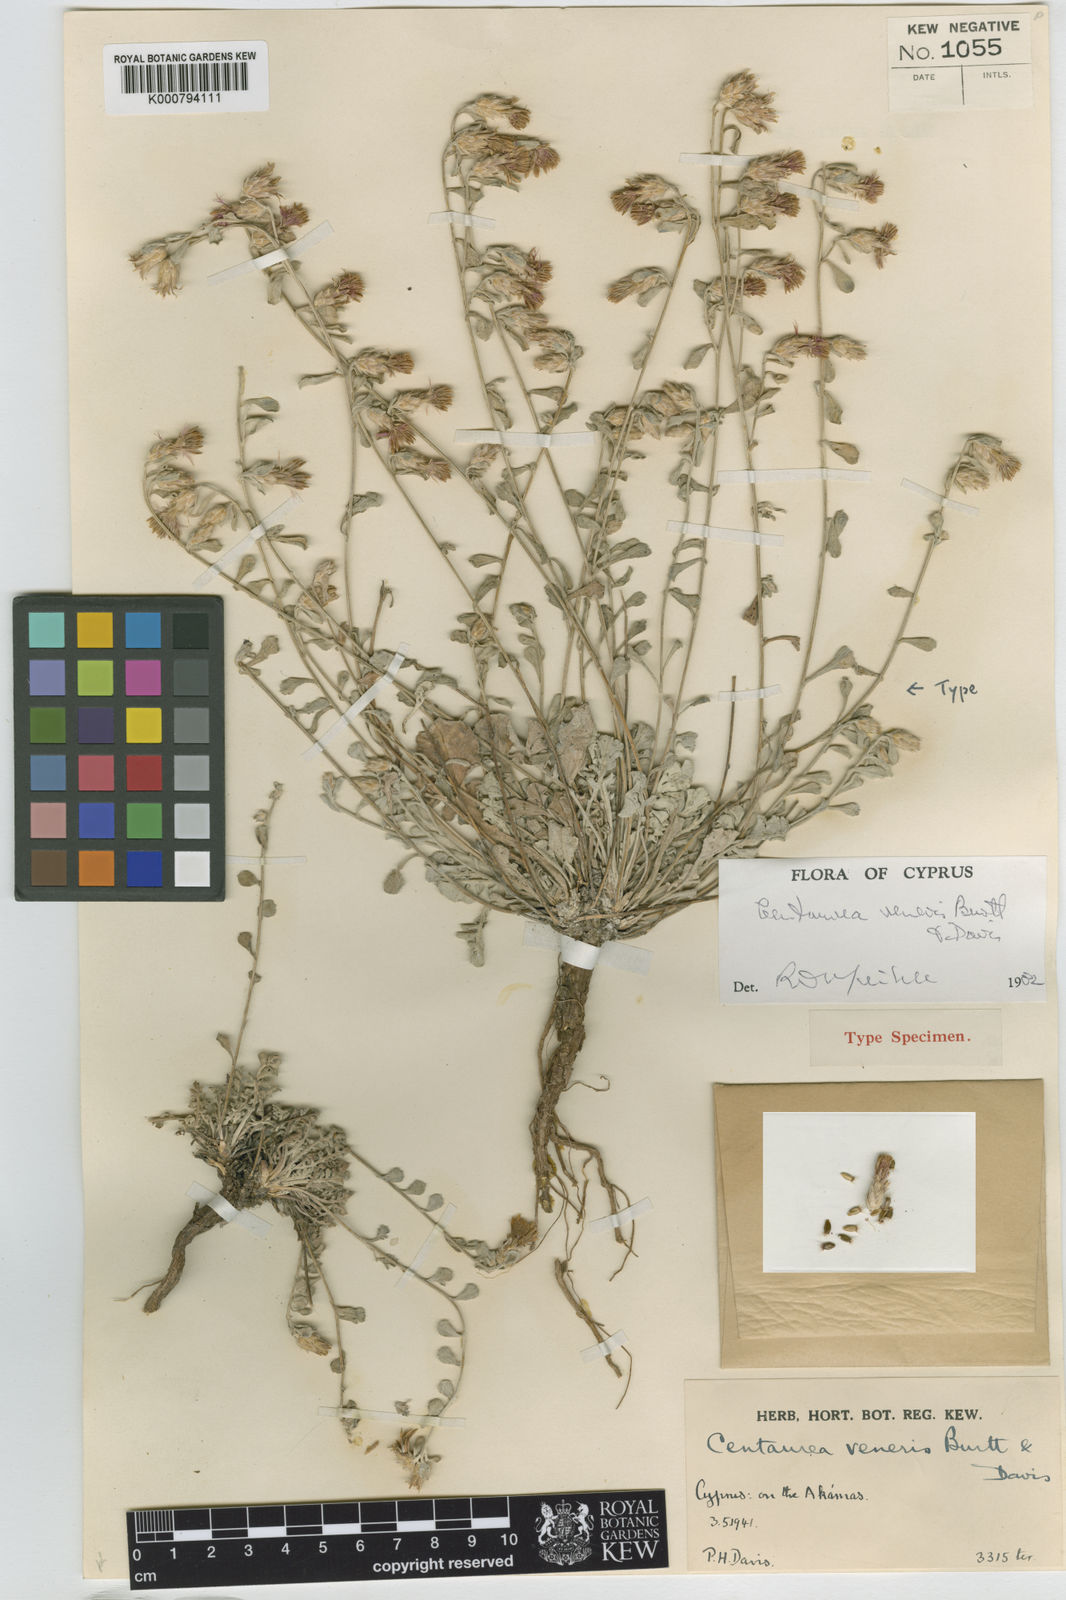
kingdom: Plantae
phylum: Tracheophyta
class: Magnoliopsida
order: Asterales
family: Asteraceae
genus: Centaurea
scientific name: Centaurea cyprensis
